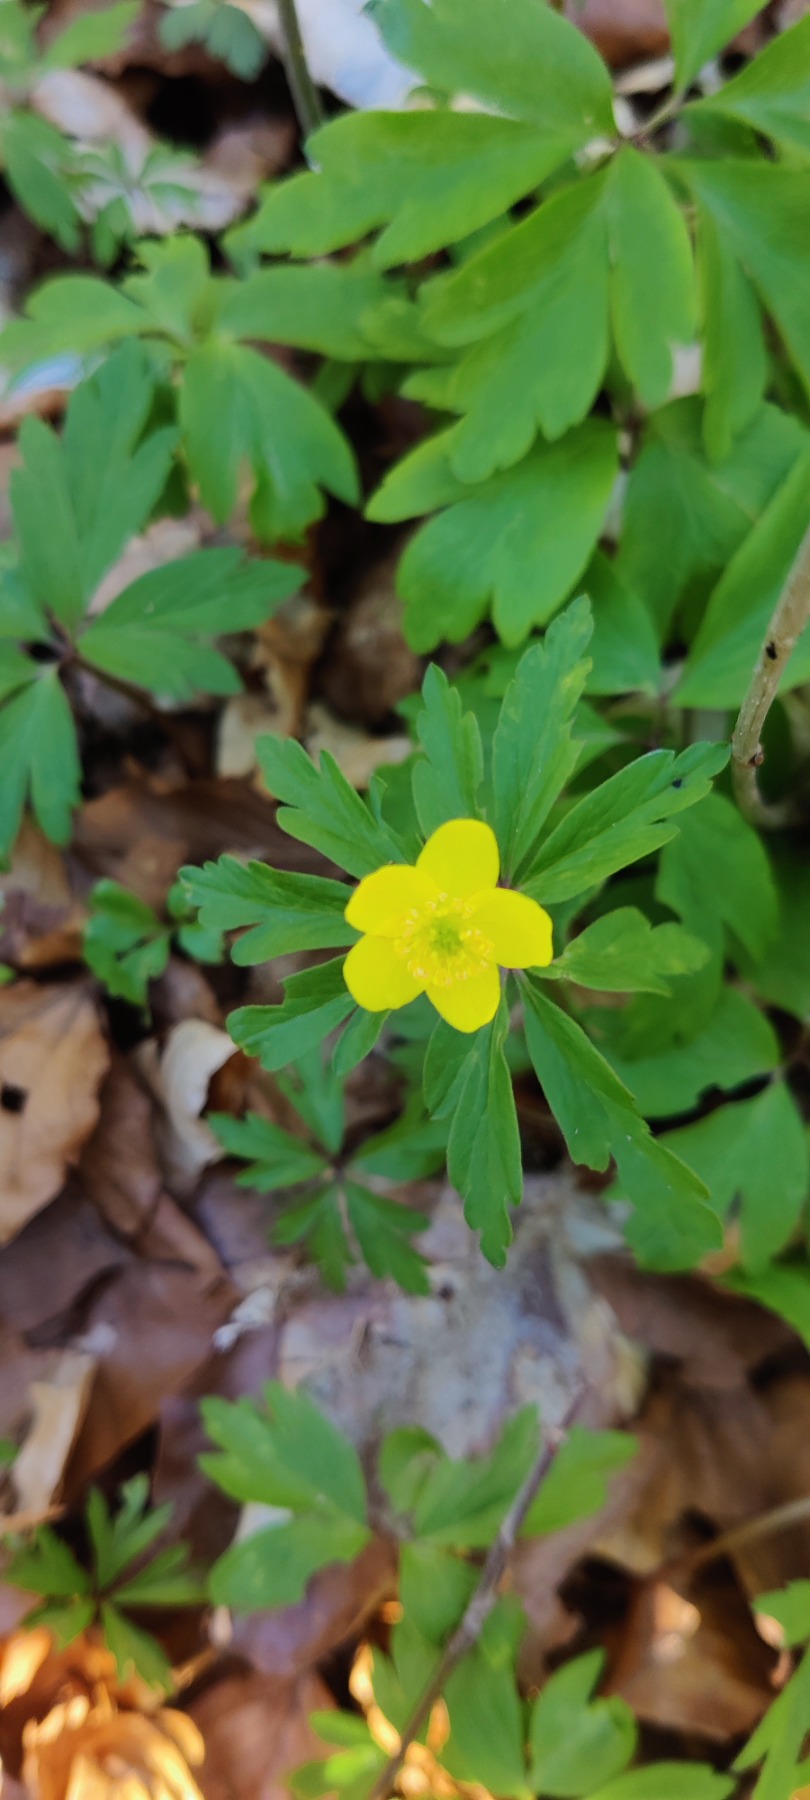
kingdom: Plantae
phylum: Tracheophyta
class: Magnoliopsida
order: Ranunculales
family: Ranunculaceae
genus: Anemone
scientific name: Anemone ranunculoides
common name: Gul anemone
